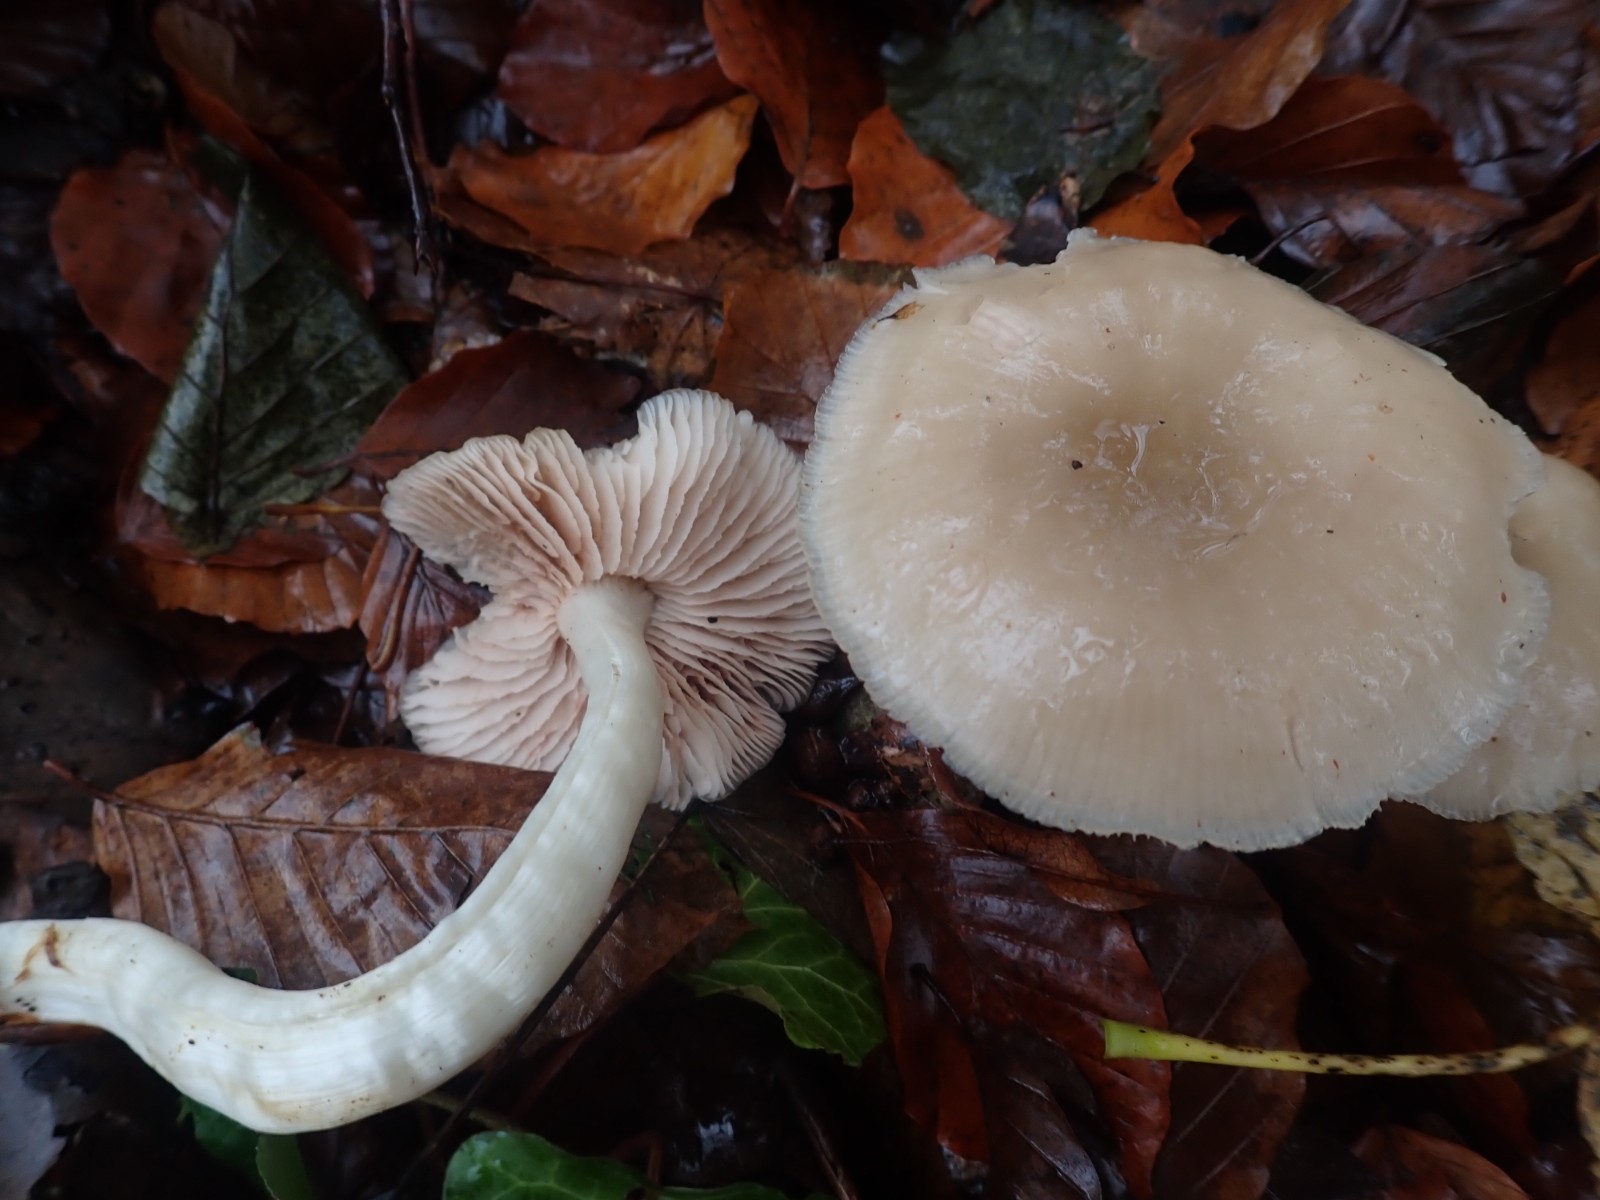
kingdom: Fungi
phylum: Basidiomycota
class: Agaricomycetes
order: Agaricales
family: Entolomataceae
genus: Entoloma
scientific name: Entoloma rhodopolium
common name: skov-rødblad
